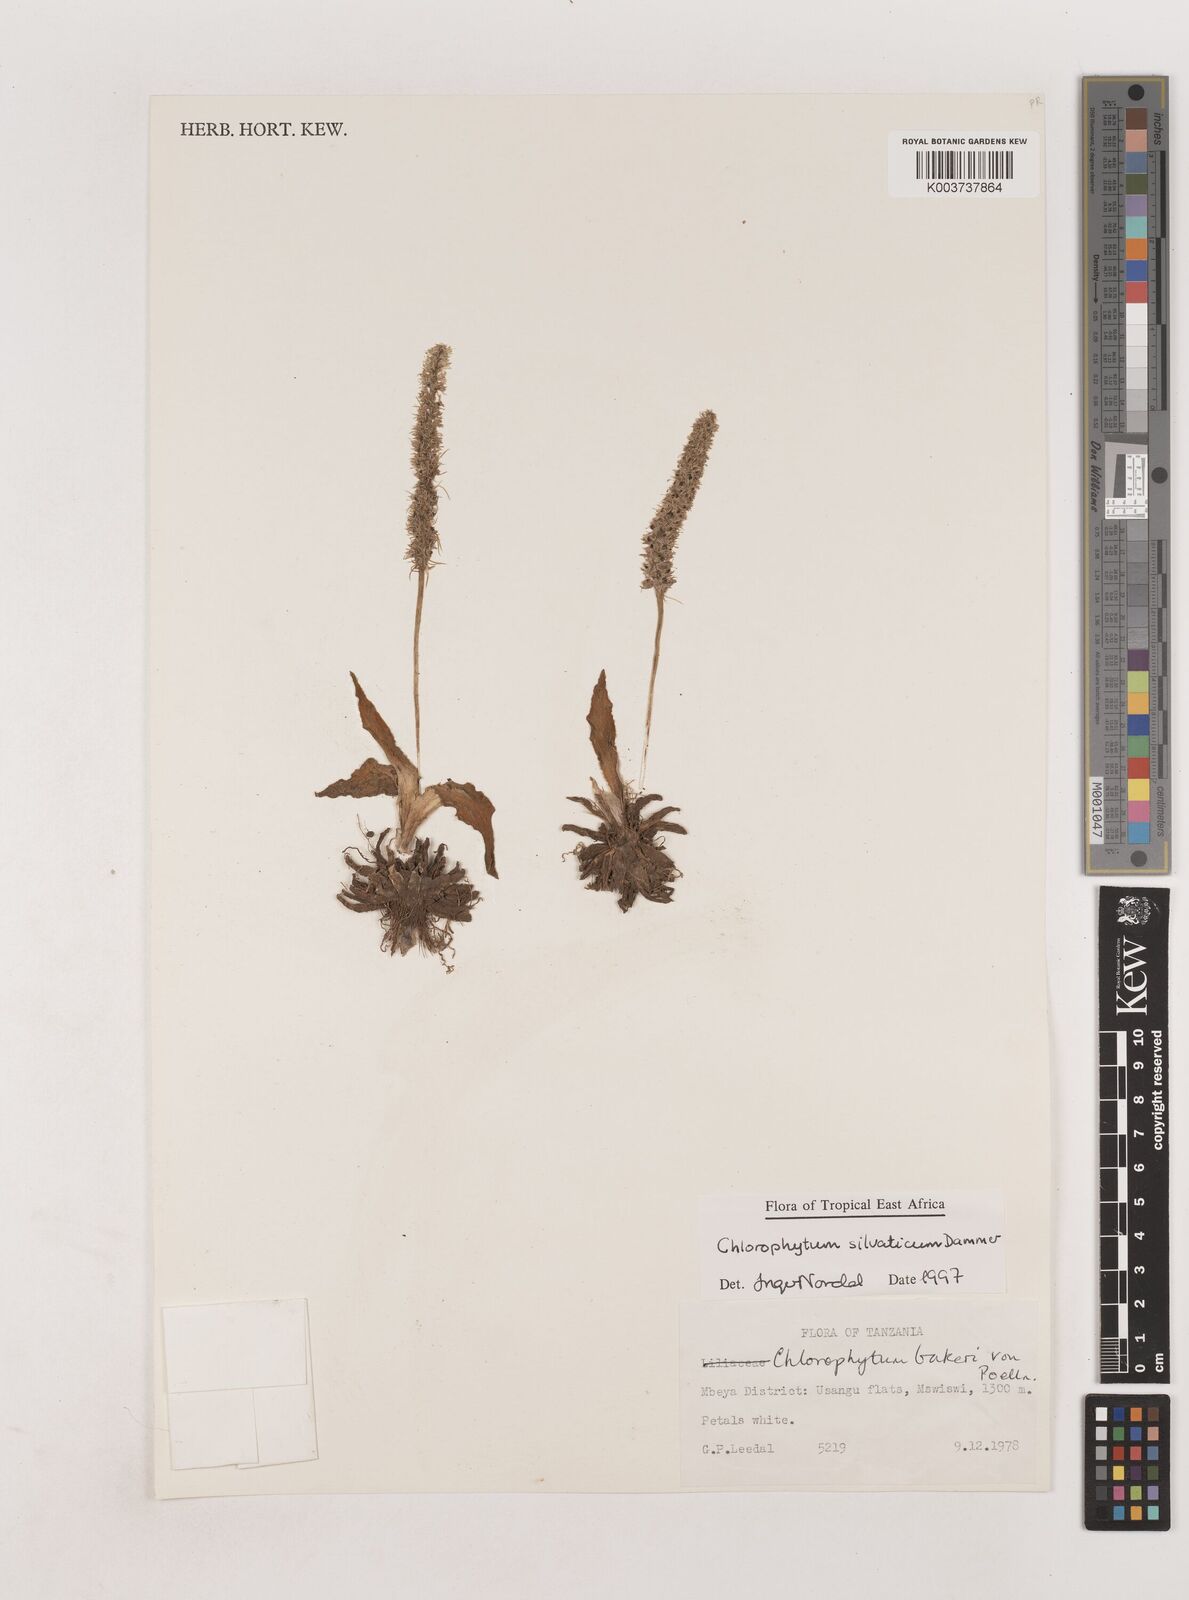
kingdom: Plantae
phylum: Tracheophyta
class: Liliopsida
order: Asparagales
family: Asparagaceae
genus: Chlorophytum
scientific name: Chlorophytum africanum
